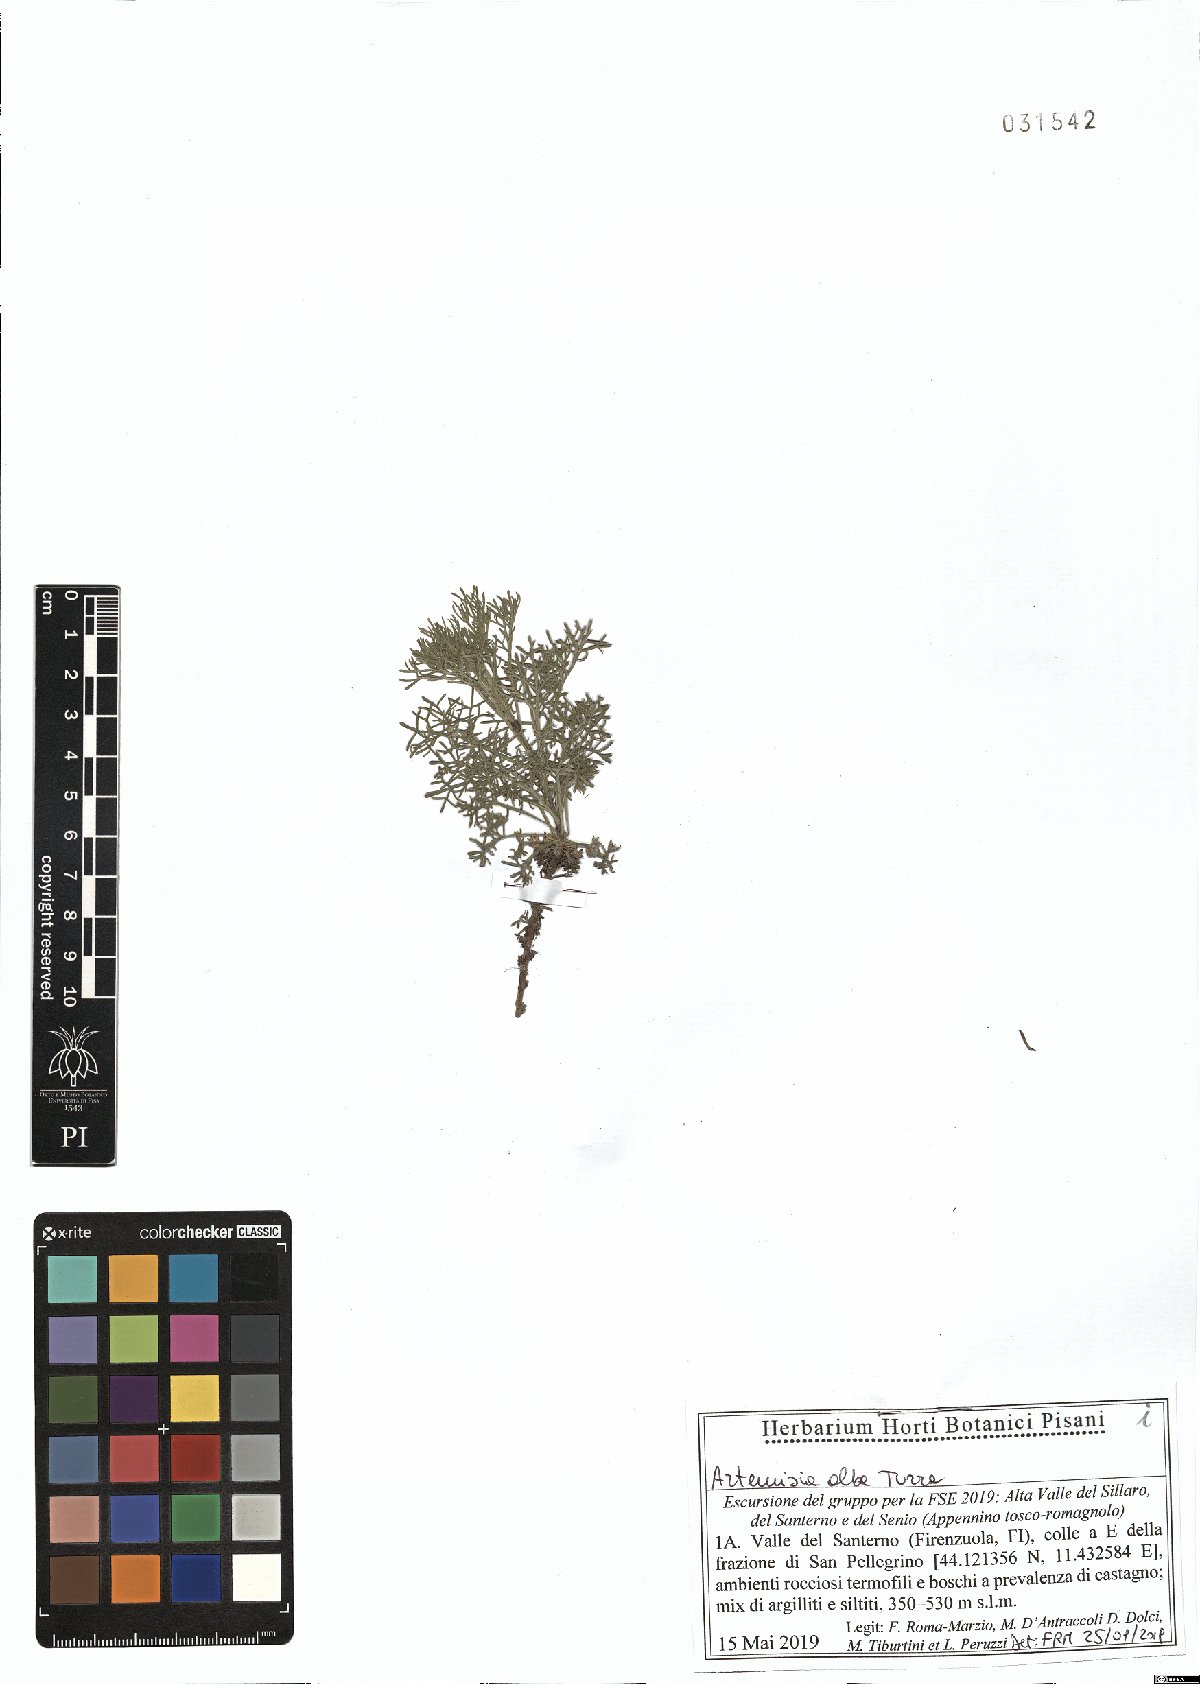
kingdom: Plantae
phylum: Tracheophyta
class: Magnoliopsida
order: Asterales
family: Asteraceae
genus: Artemisia
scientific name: Artemisia alba
